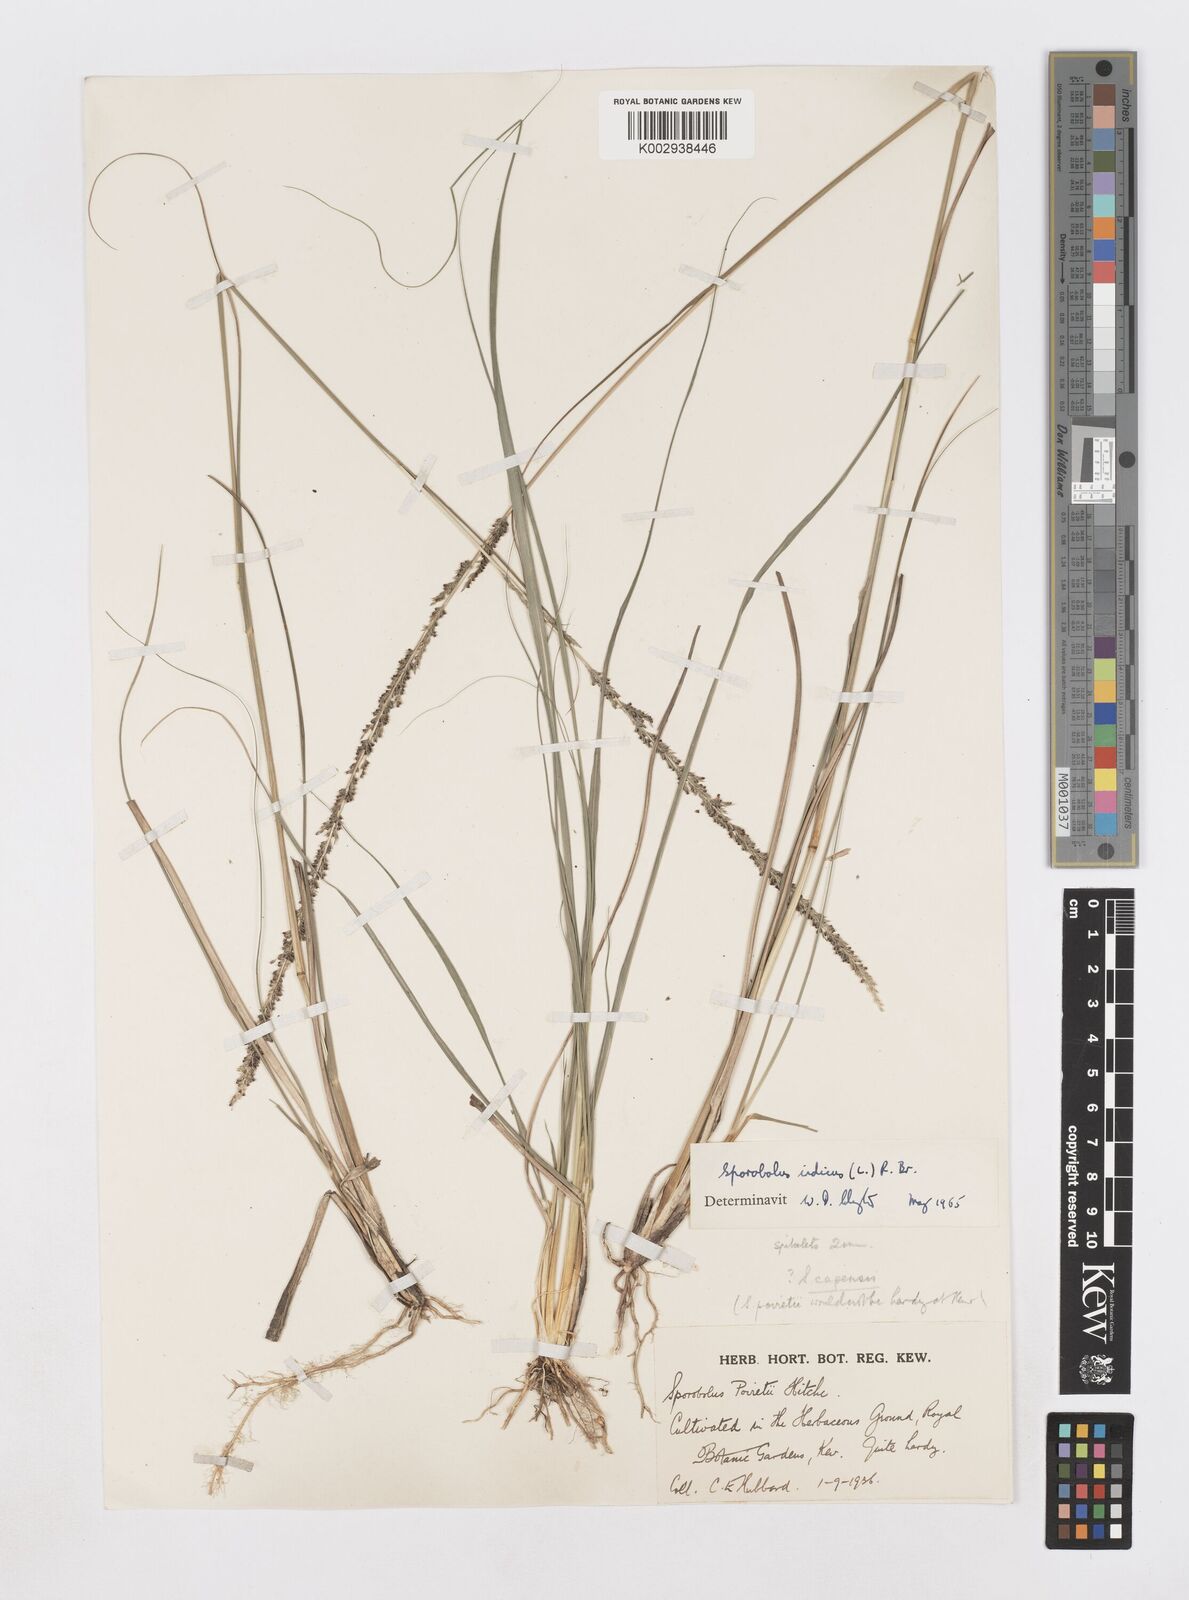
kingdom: Plantae
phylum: Tracheophyta
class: Liliopsida
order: Poales
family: Poaceae
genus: Sporobolus
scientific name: Sporobolus indicus
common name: Smut grass
